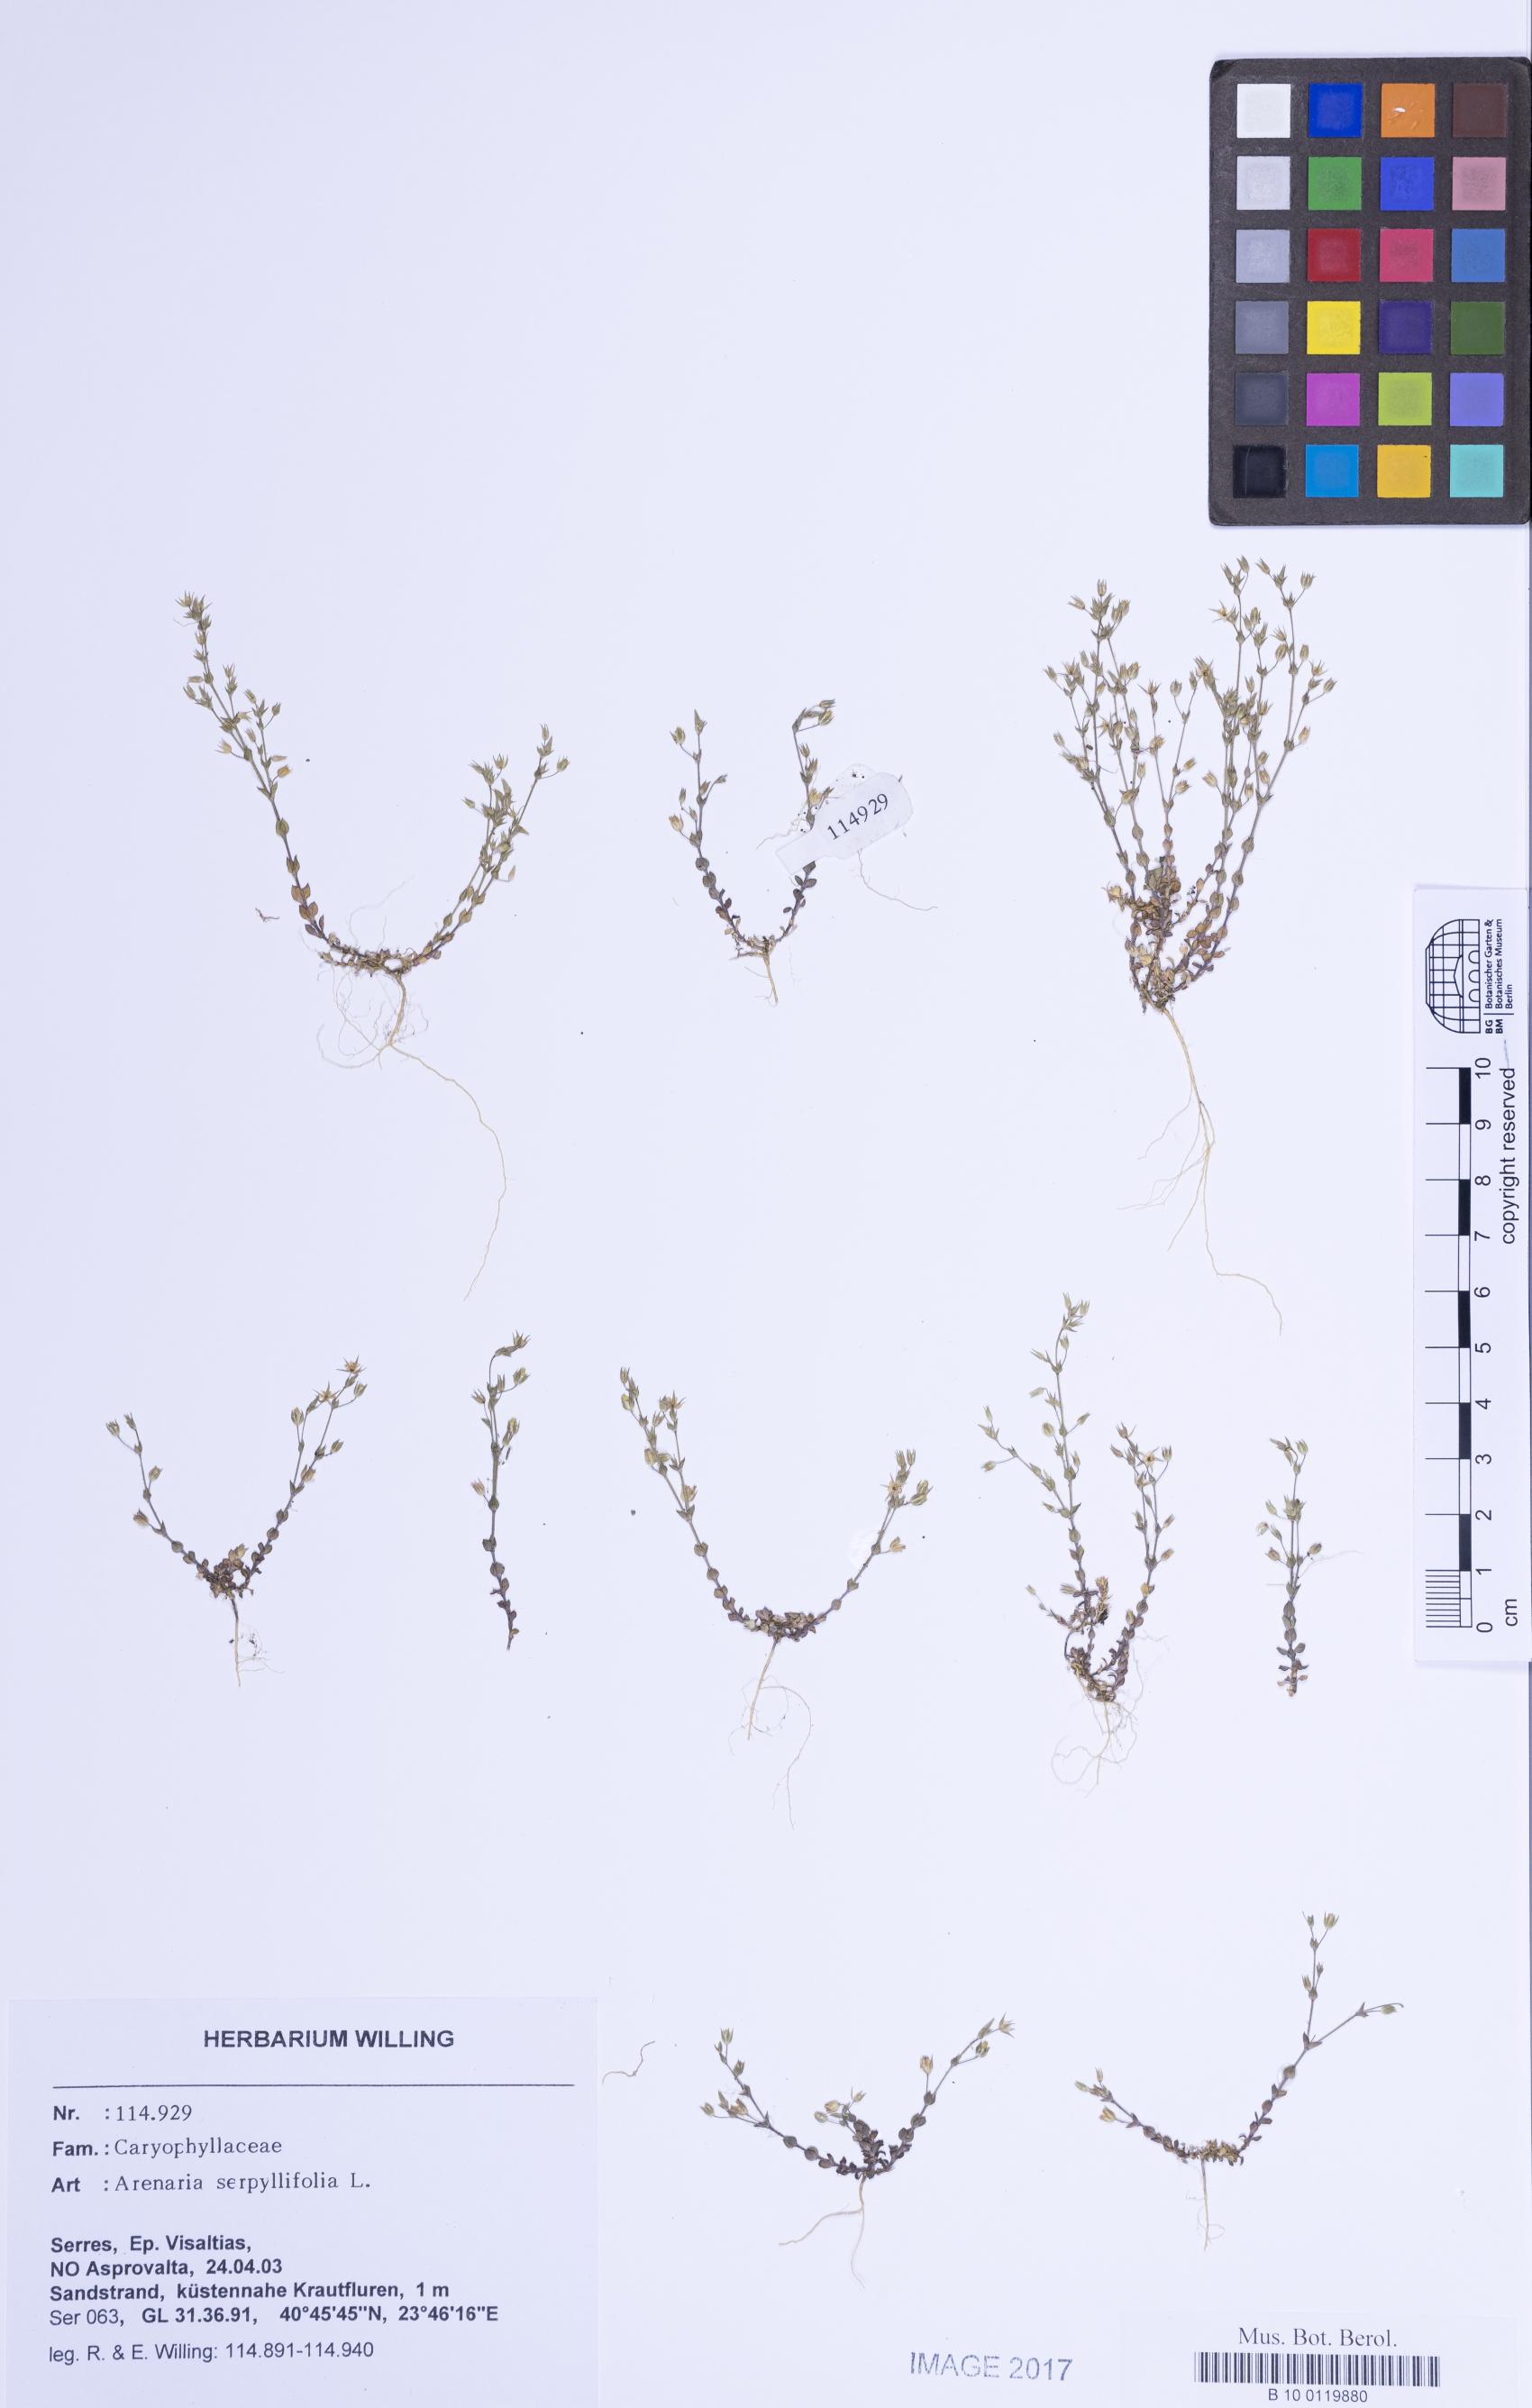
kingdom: Plantae
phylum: Tracheophyta
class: Magnoliopsida
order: Caryophyllales
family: Caryophyllaceae
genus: Arenaria
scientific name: Arenaria serpyllifolia
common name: Thyme-leaved sandwort
